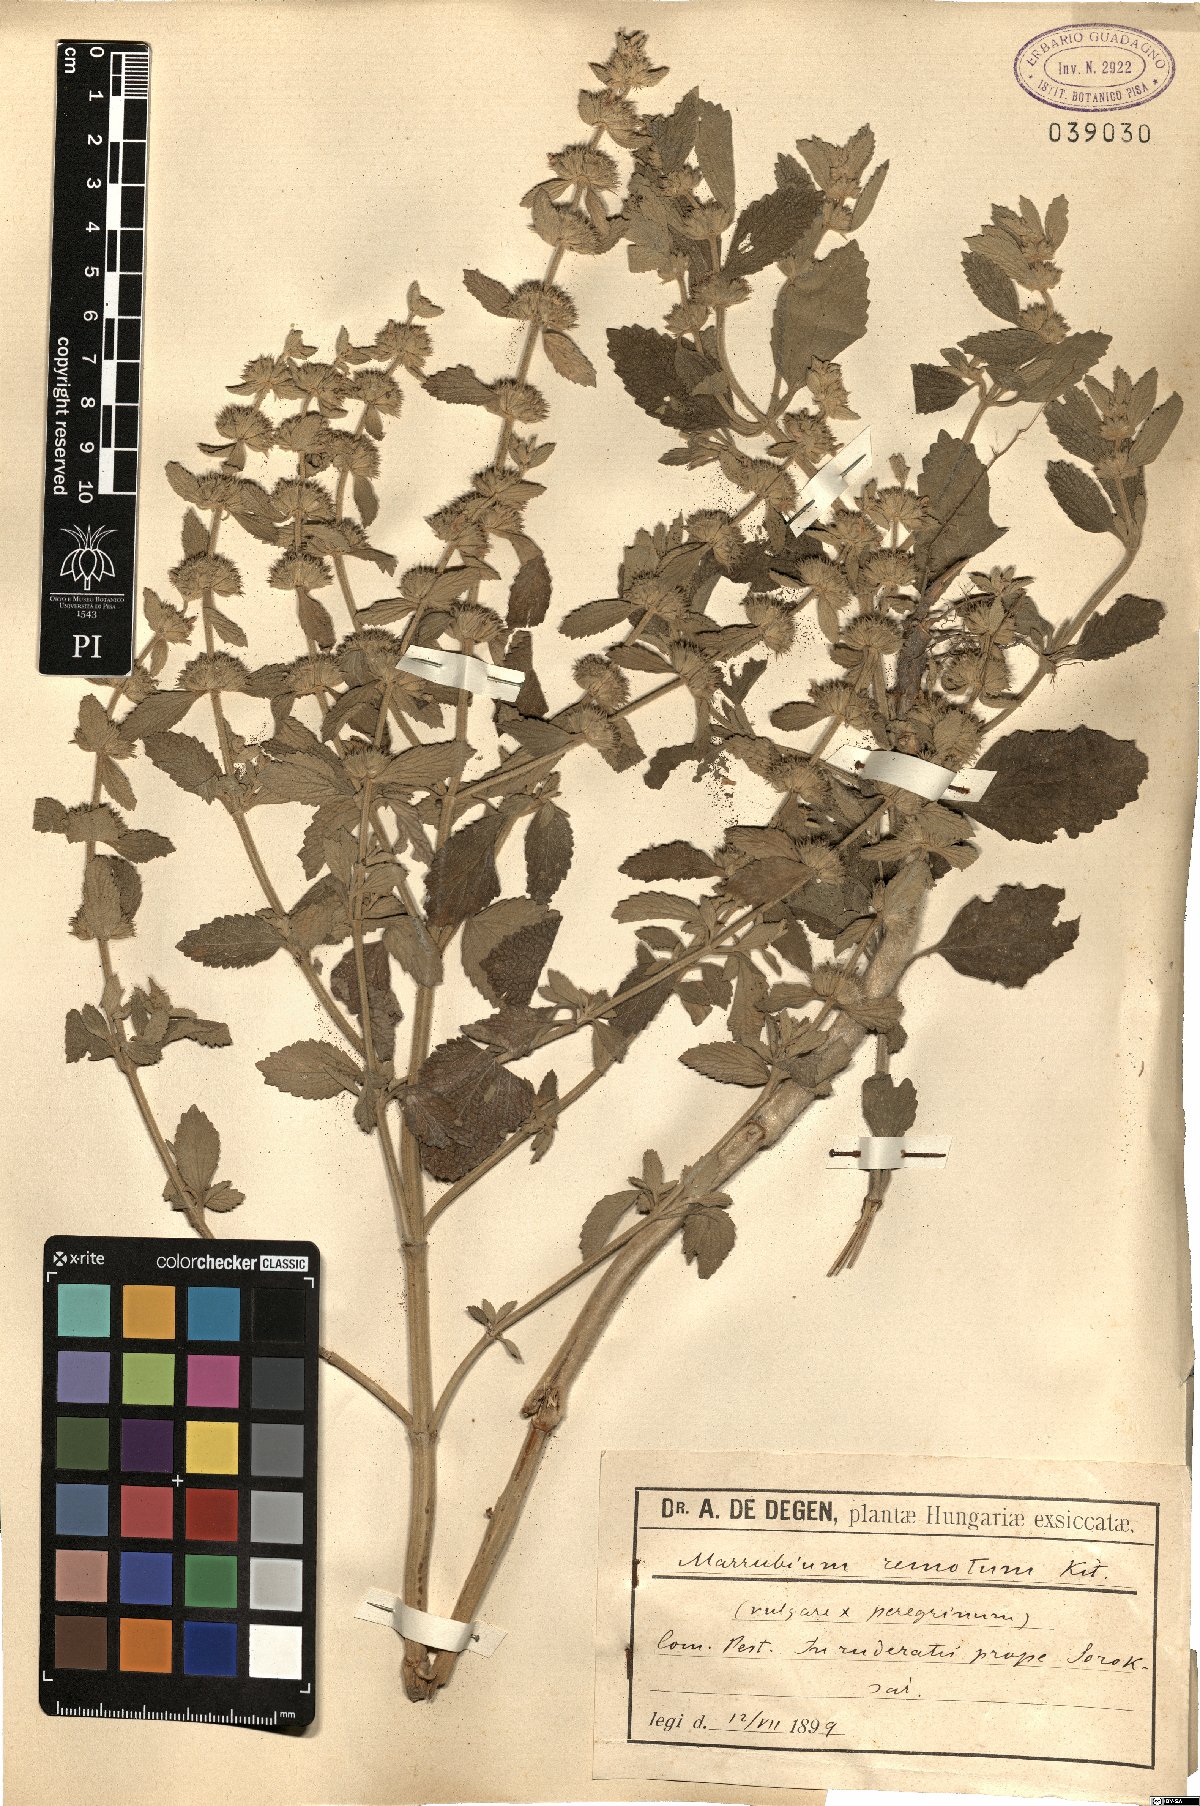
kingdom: Plantae
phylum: Tracheophyta
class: Magnoliopsida
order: Lamiales
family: Lamiaceae
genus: Marrubium
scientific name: Marrubium peregrinum
